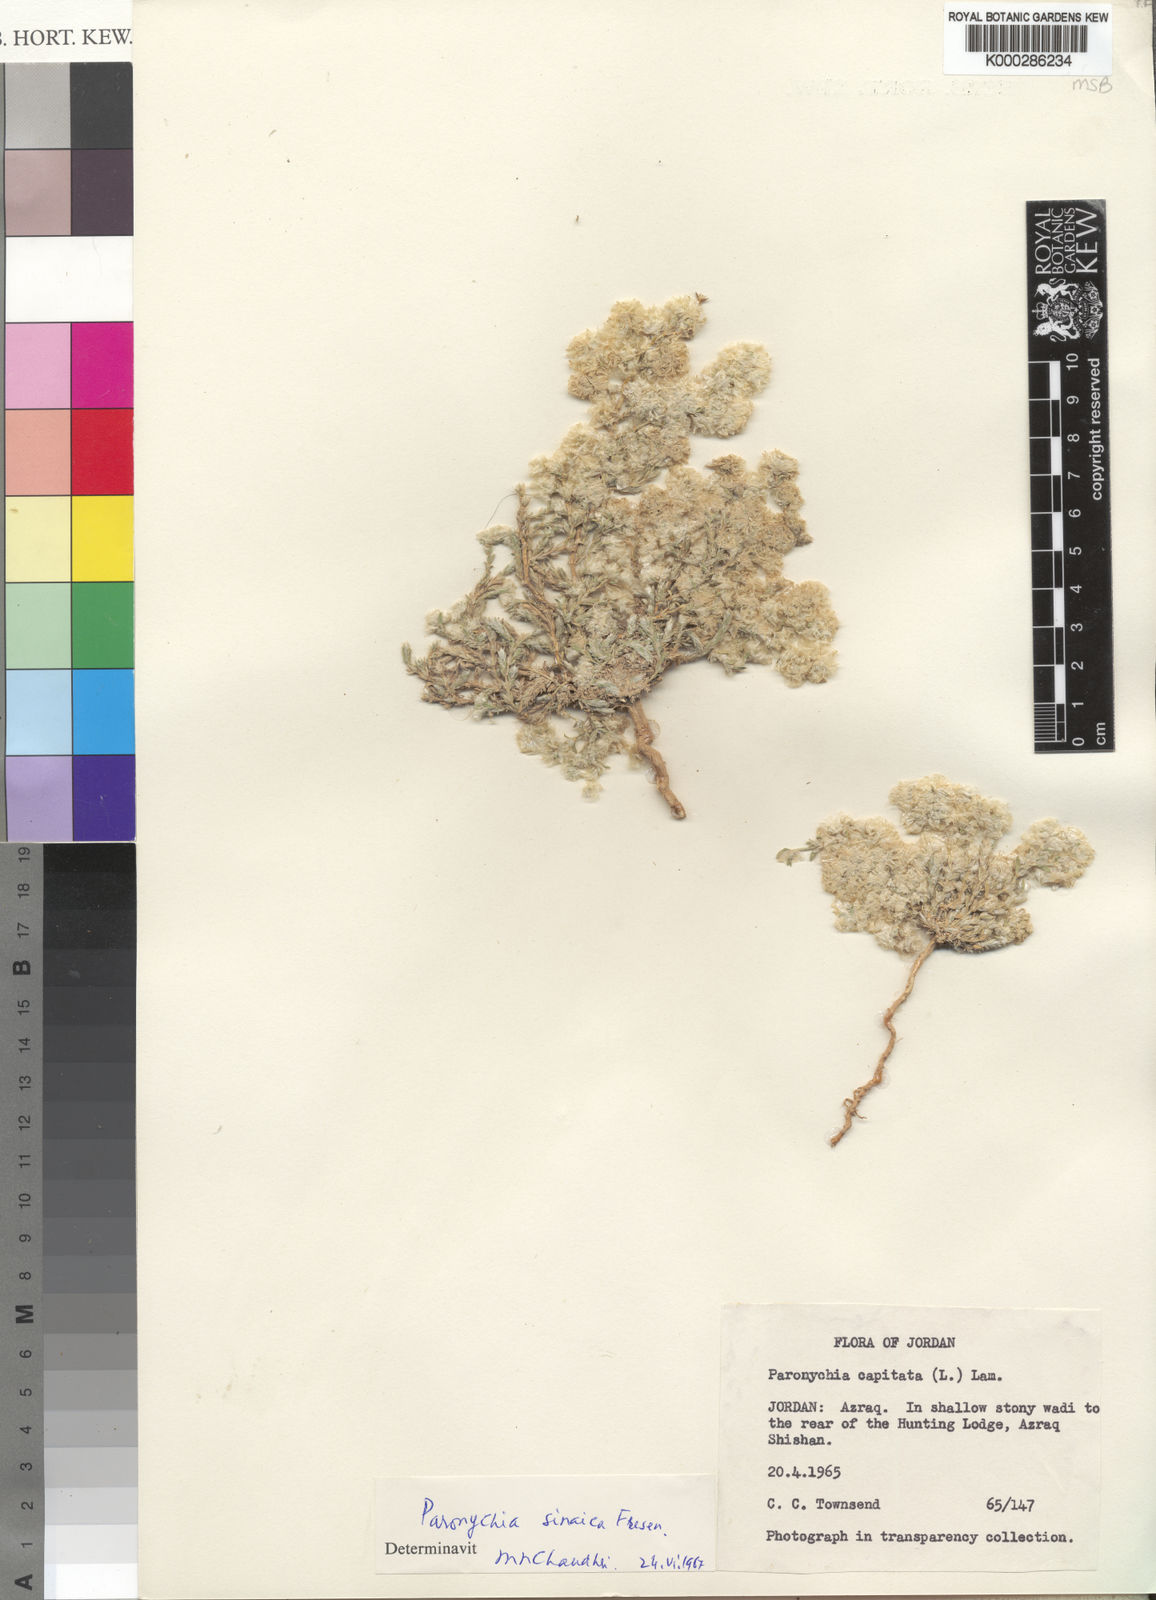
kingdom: Plantae
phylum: Tracheophyta
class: Magnoliopsida
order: Caryophyllales
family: Caryophyllaceae
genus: Paronychia
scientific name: Paronychia sinaica
